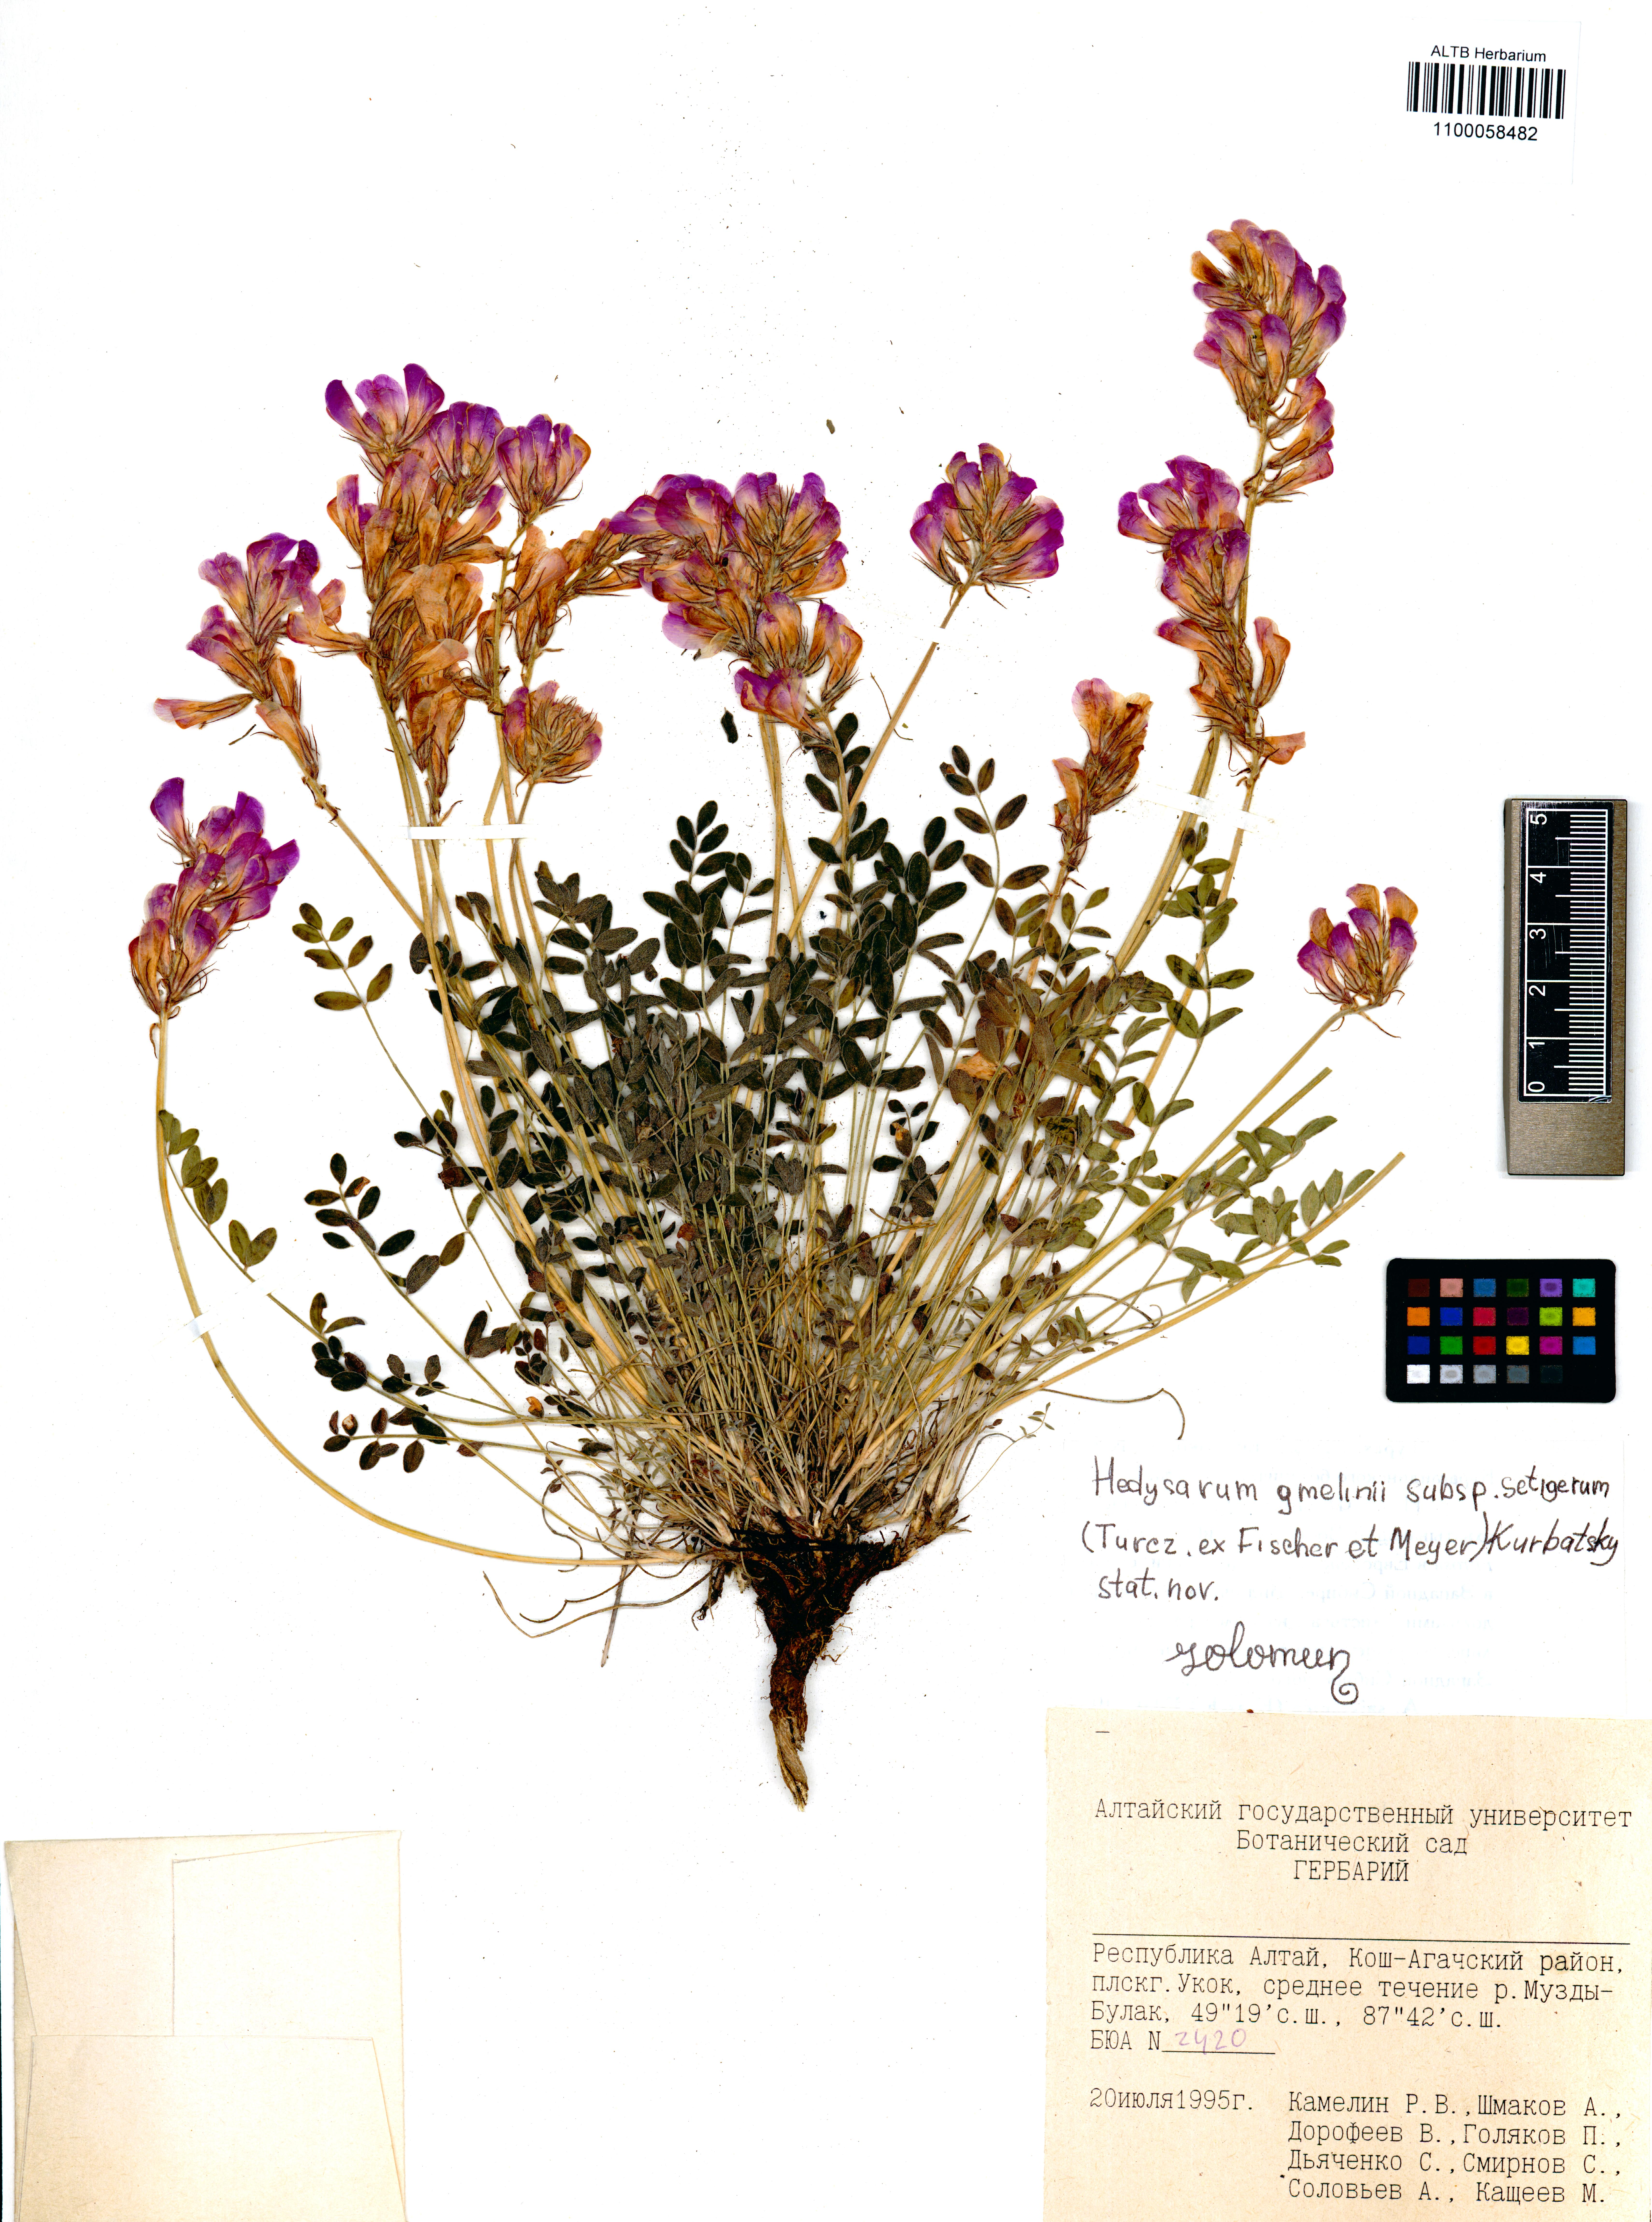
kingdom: Plantae
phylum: Tracheophyta
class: Magnoliopsida
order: Fabales
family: Fabaceae
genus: Hedysarum
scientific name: Hedysarum setigerum
